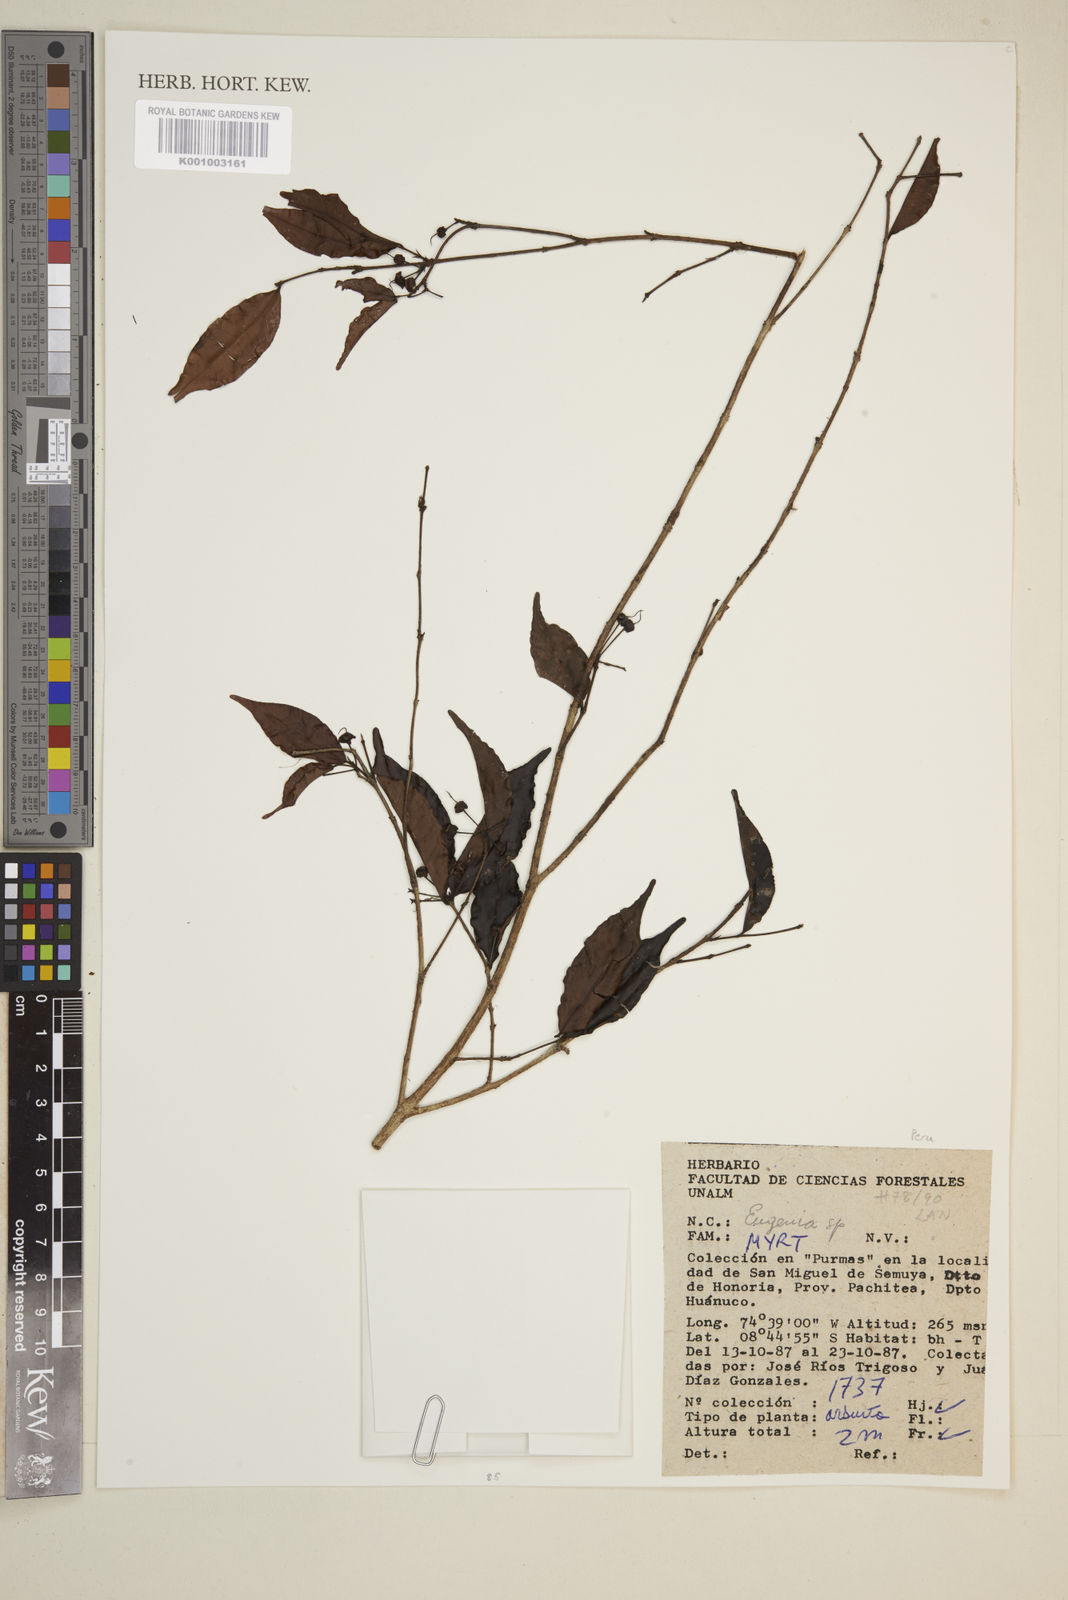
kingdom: Plantae
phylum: Tracheophyta
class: Magnoliopsida
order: Myrtales
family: Myrtaceae
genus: Eugenia
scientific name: Eugenia
